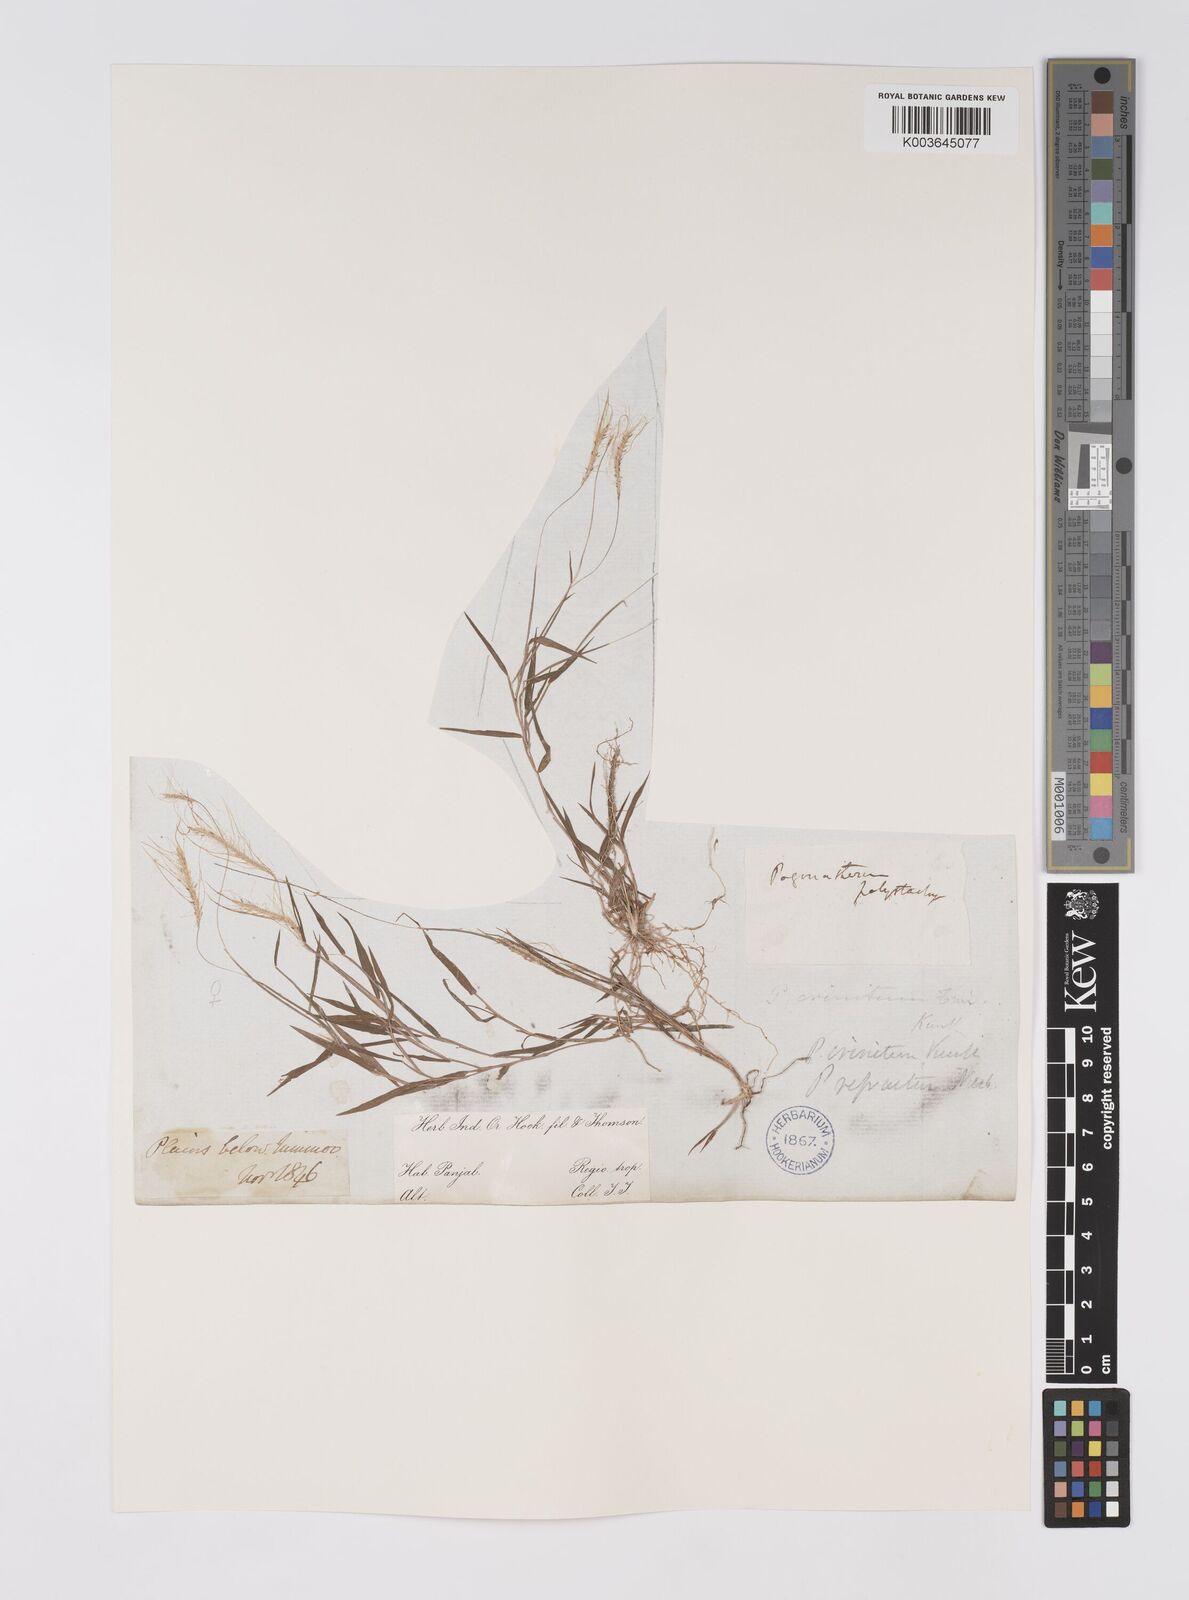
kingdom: Plantae
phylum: Tracheophyta
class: Liliopsida
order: Poales
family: Poaceae
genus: Pogonatherum
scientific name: Pogonatherum crinitum
